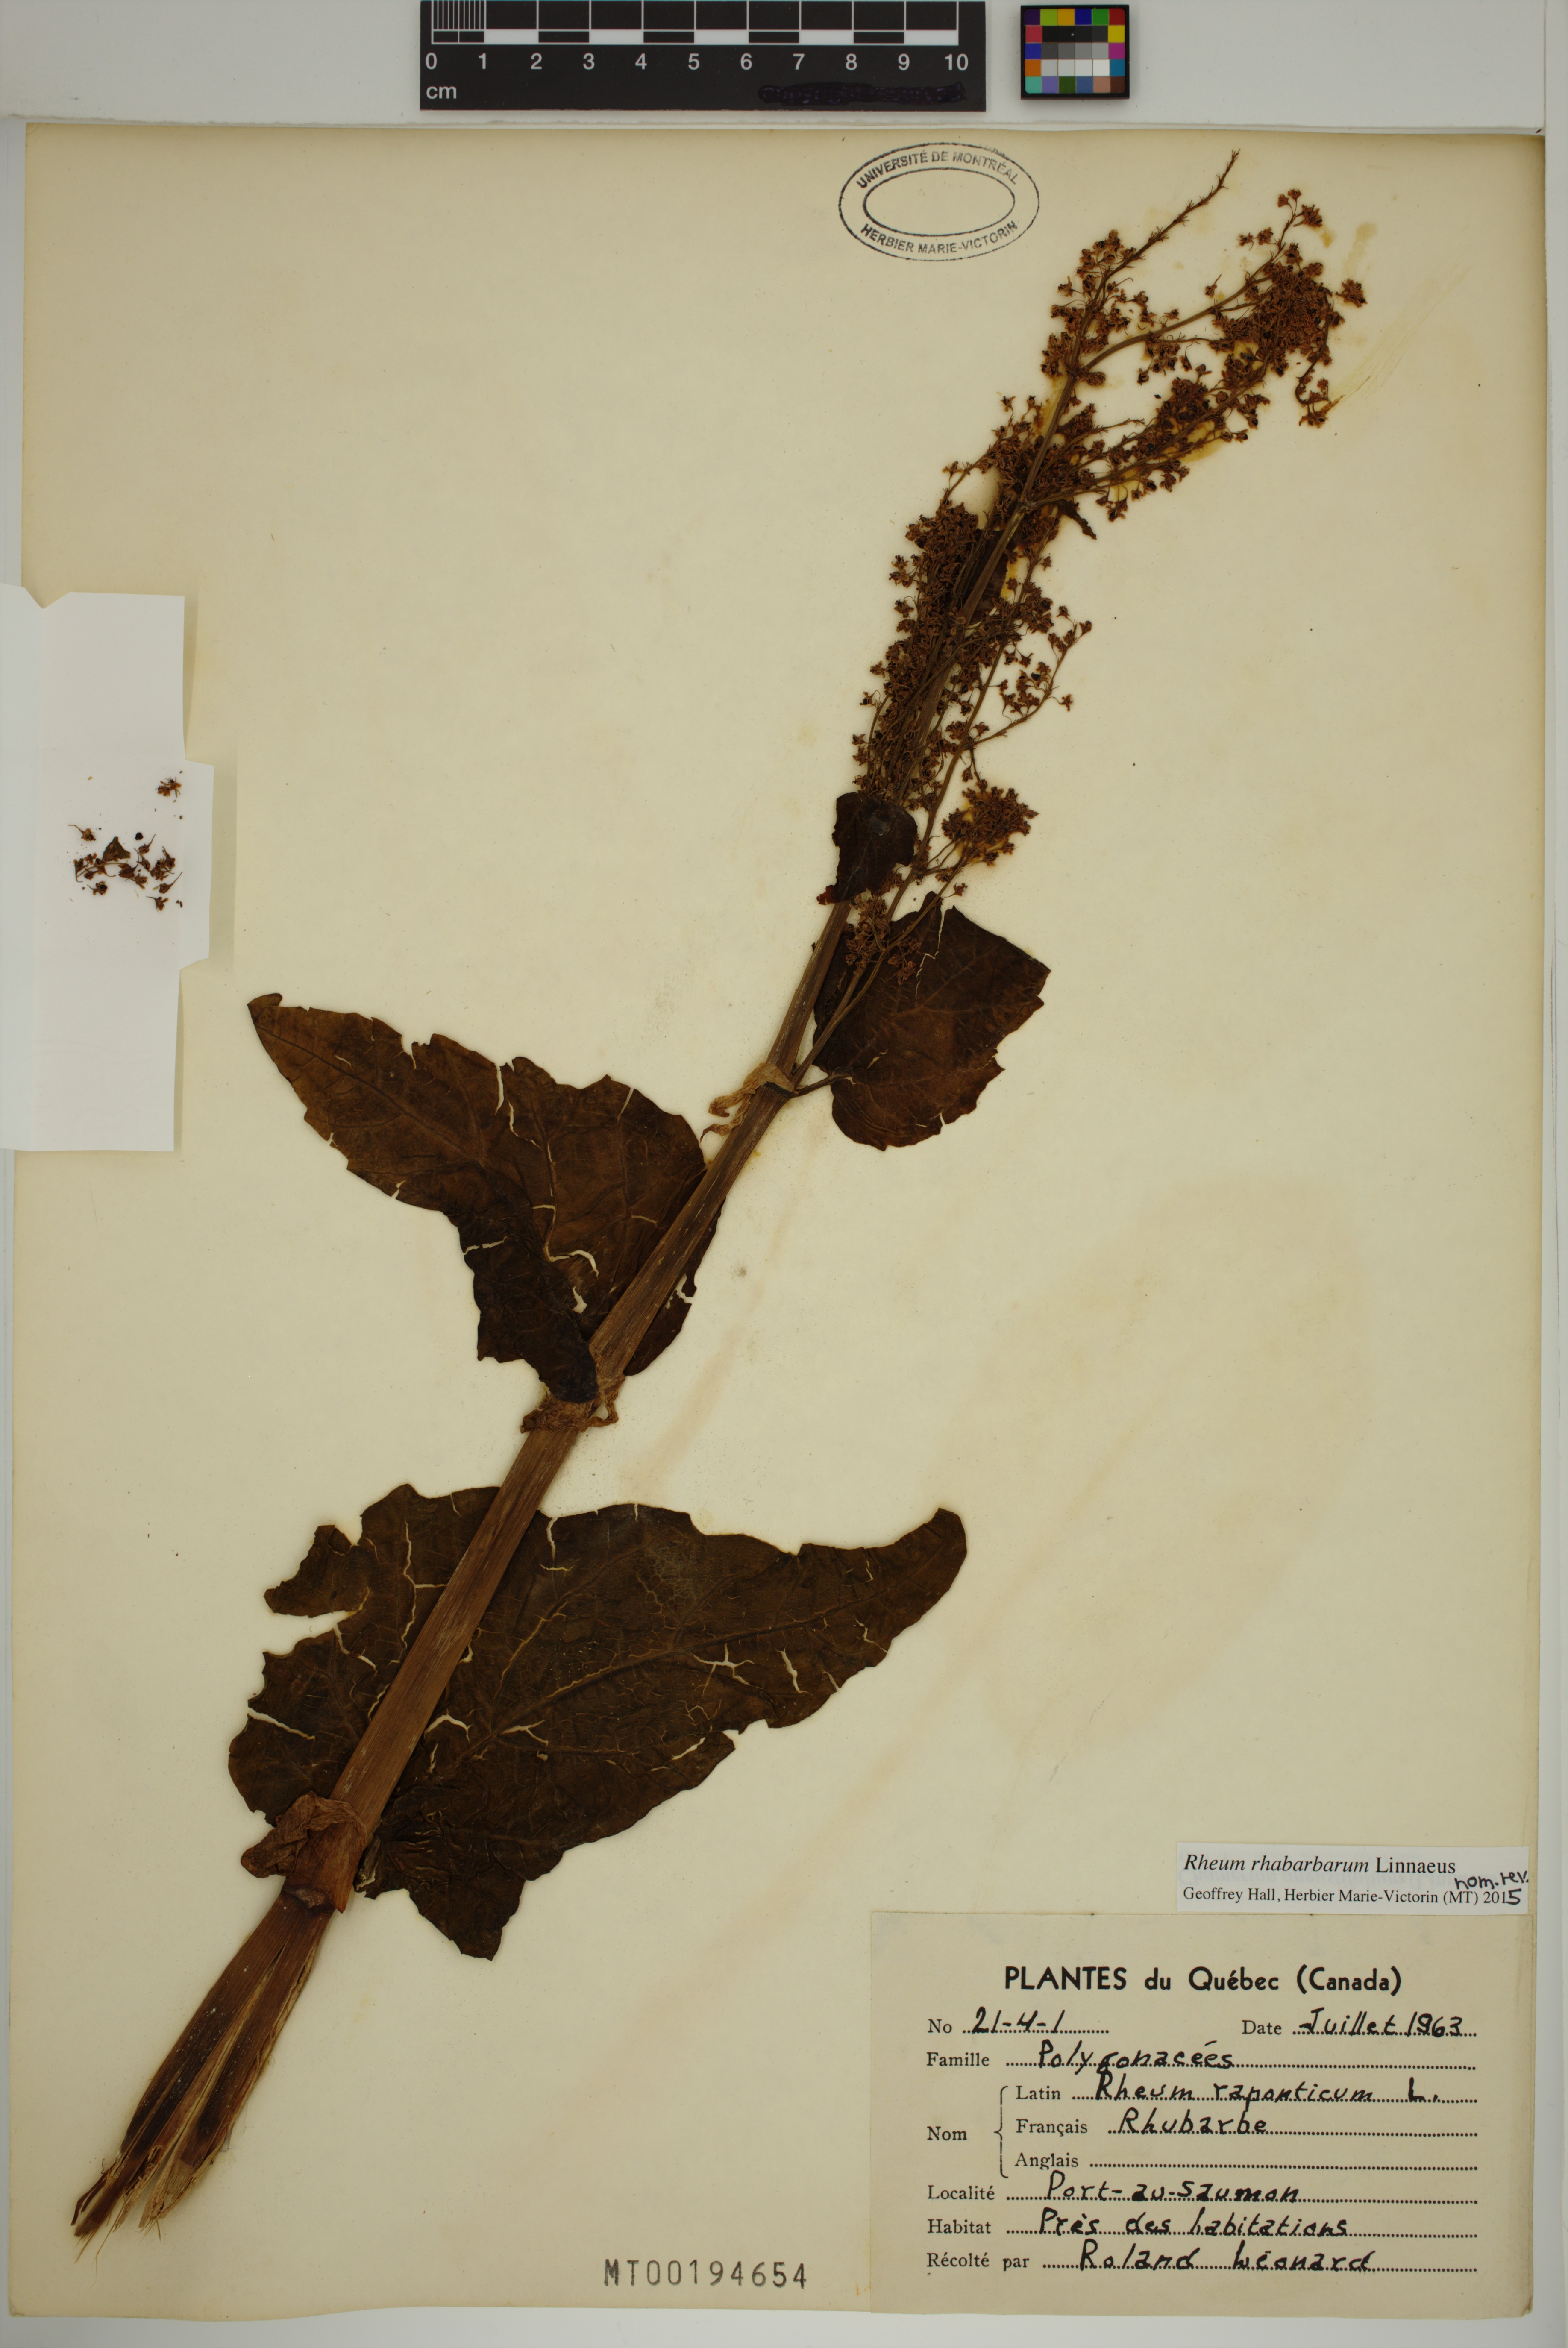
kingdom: Plantae
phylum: Tracheophyta
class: Magnoliopsida
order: Caryophyllales
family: Polygonaceae
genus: Rheum
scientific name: Rheum rhabarbarum
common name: Garden rhubarb
